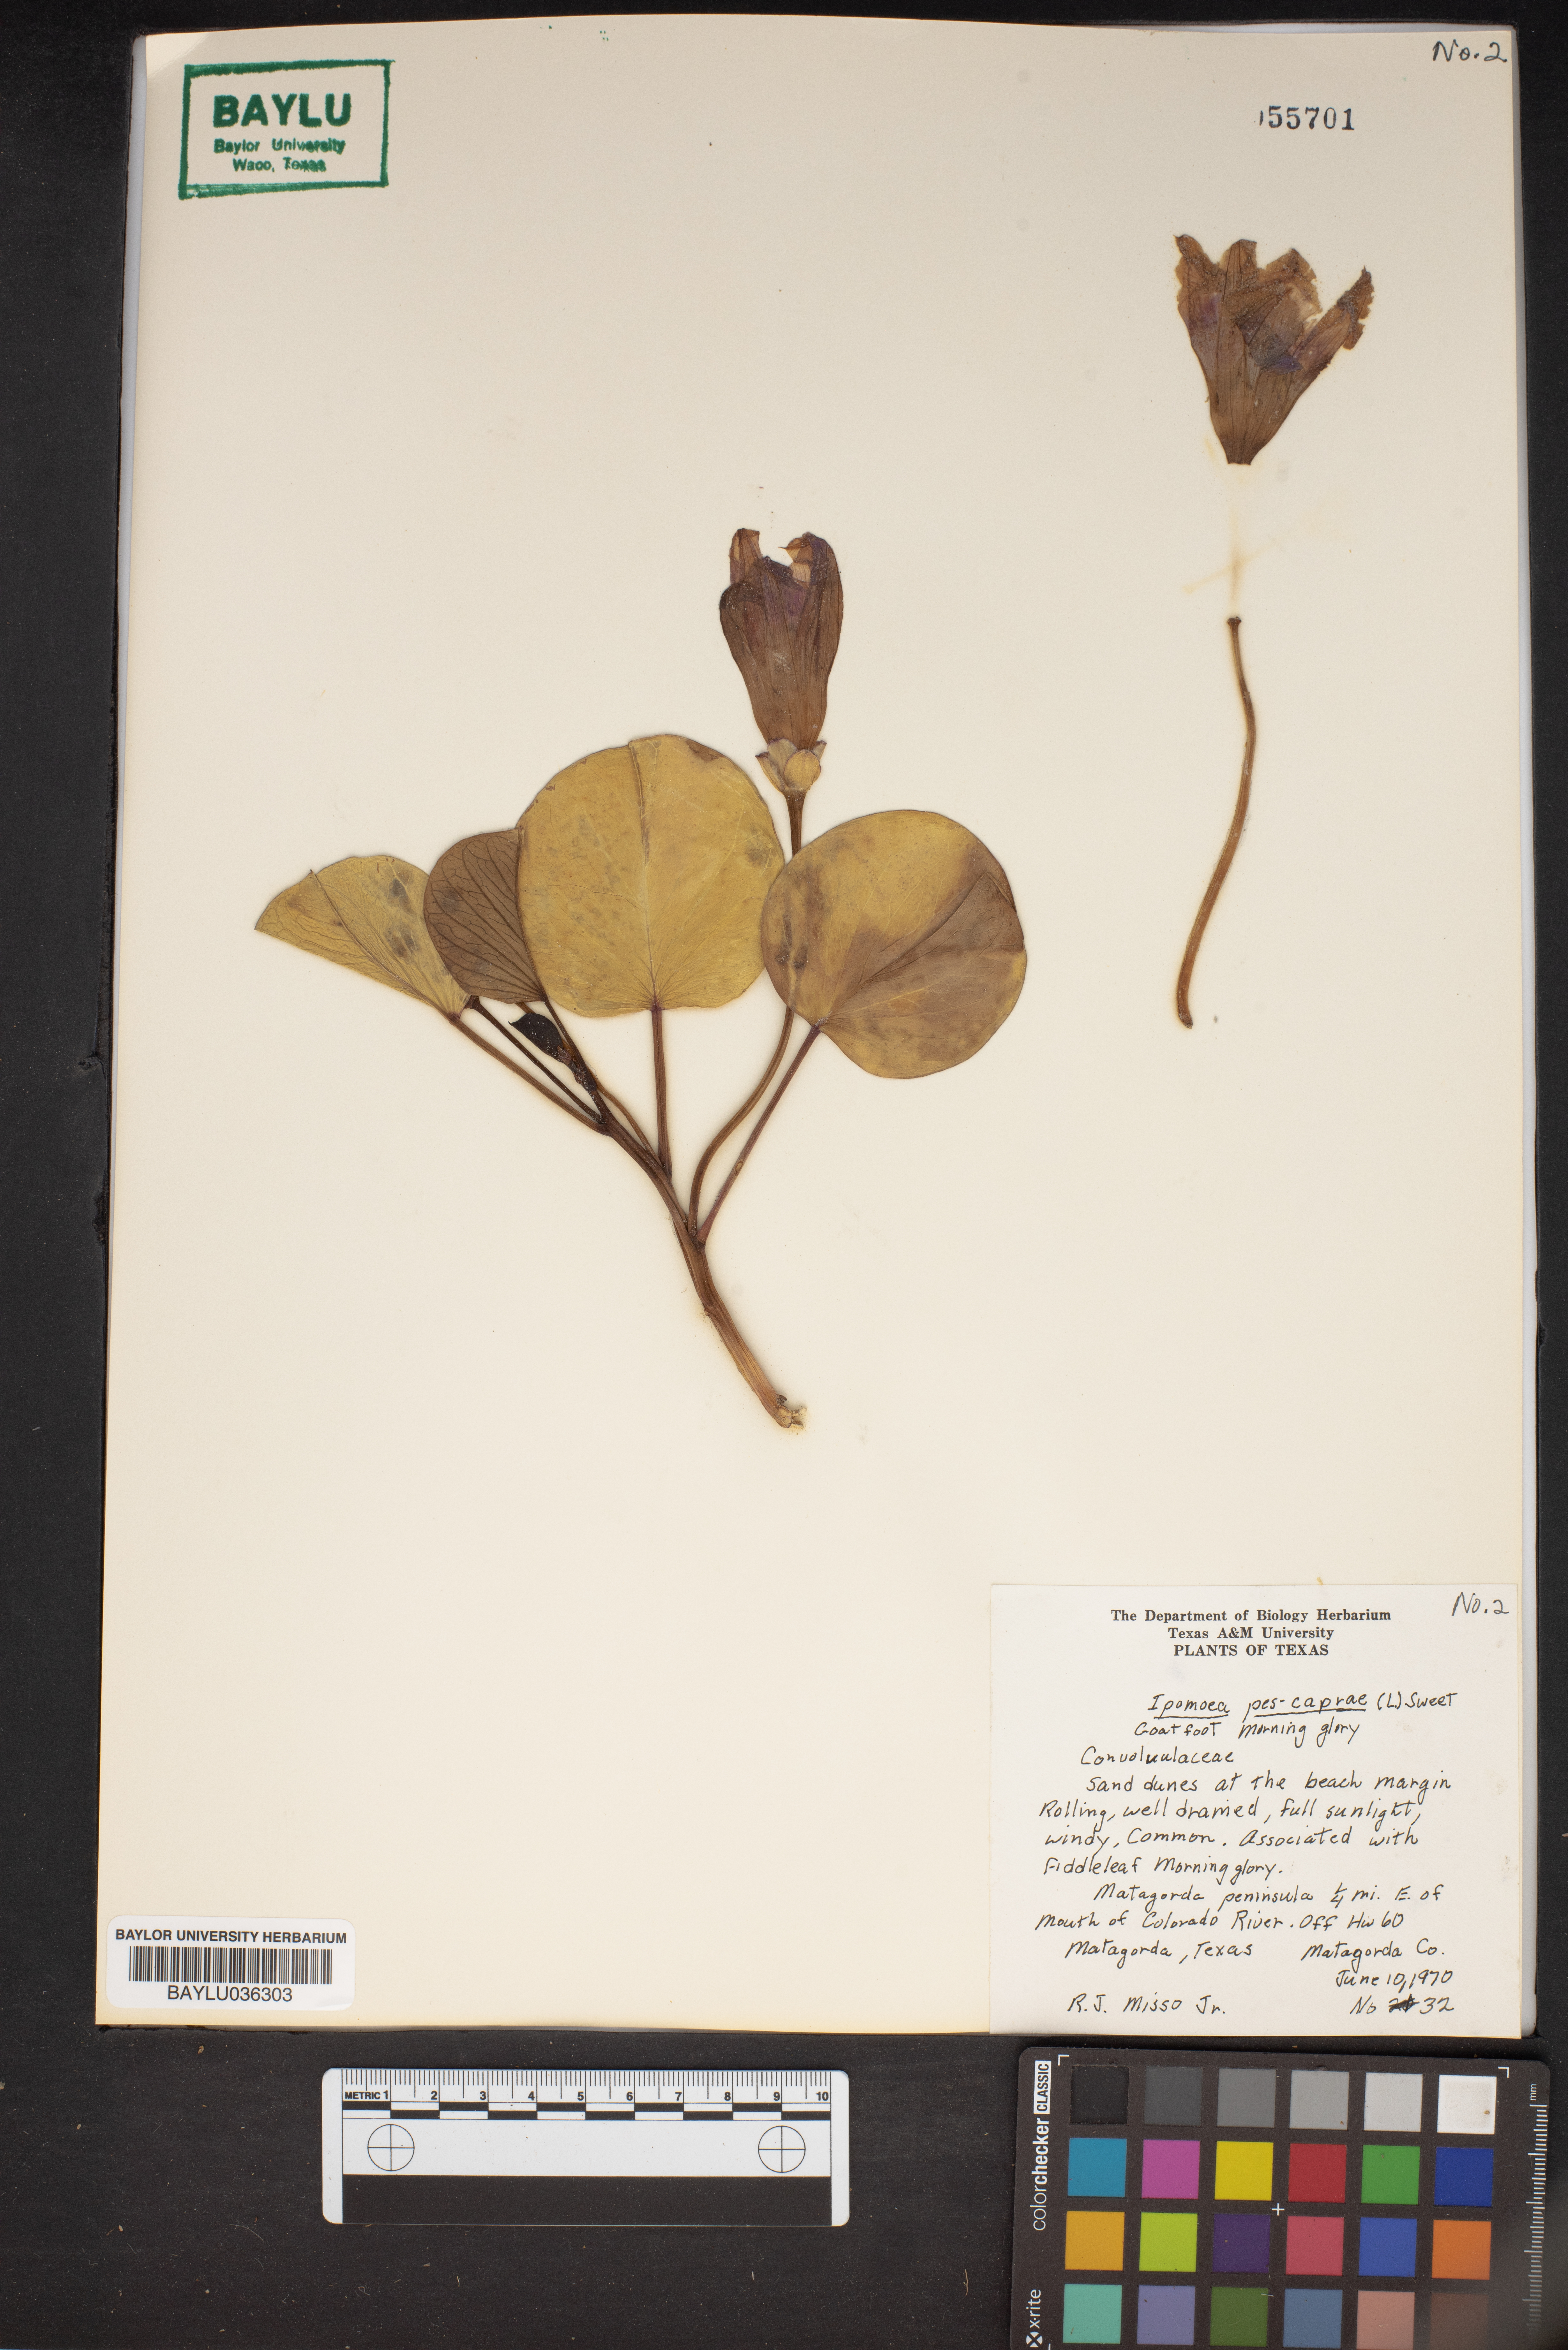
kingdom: Plantae
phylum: Tracheophyta
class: Magnoliopsida
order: Solanales
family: Convolvulaceae
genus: Ipomoea
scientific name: Ipomoea pes-caprae
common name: Beach morning glory
